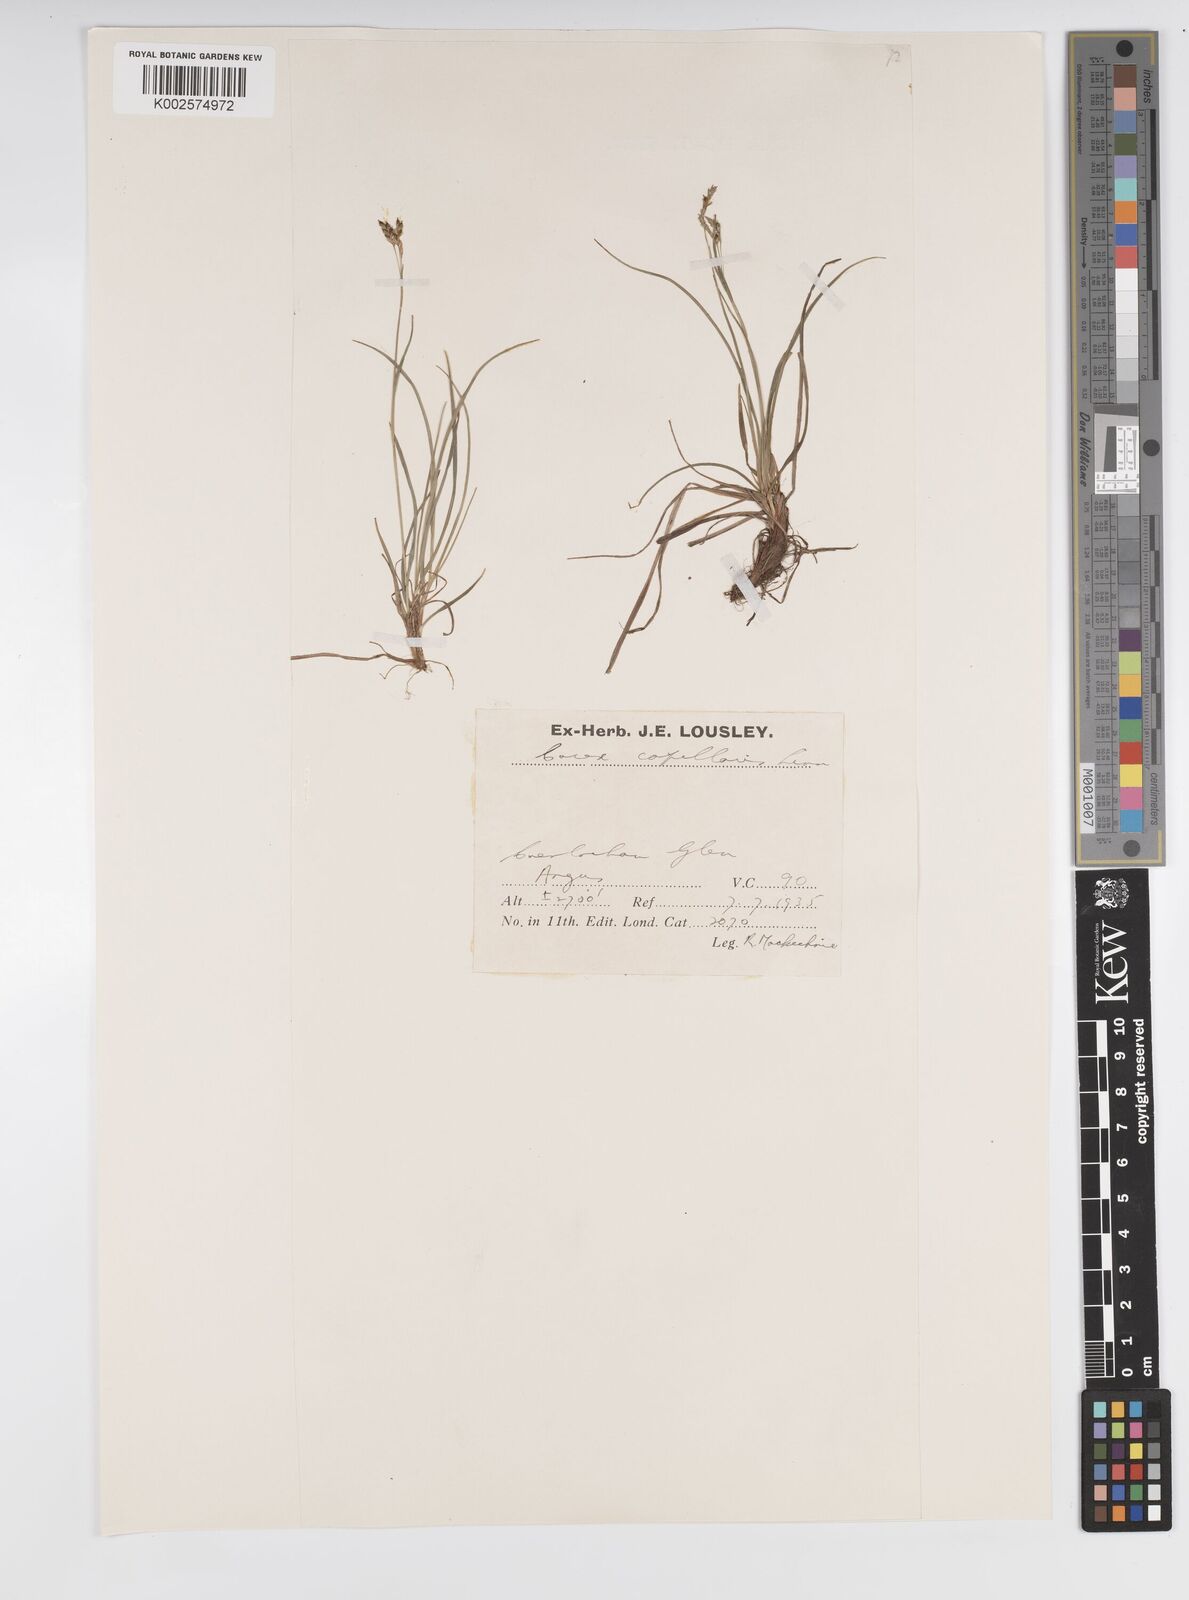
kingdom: Plantae
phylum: Tracheophyta
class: Liliopsida
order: Poales
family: Cyperaceae
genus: Carex
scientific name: Carex capillaris
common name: Hair sedge
